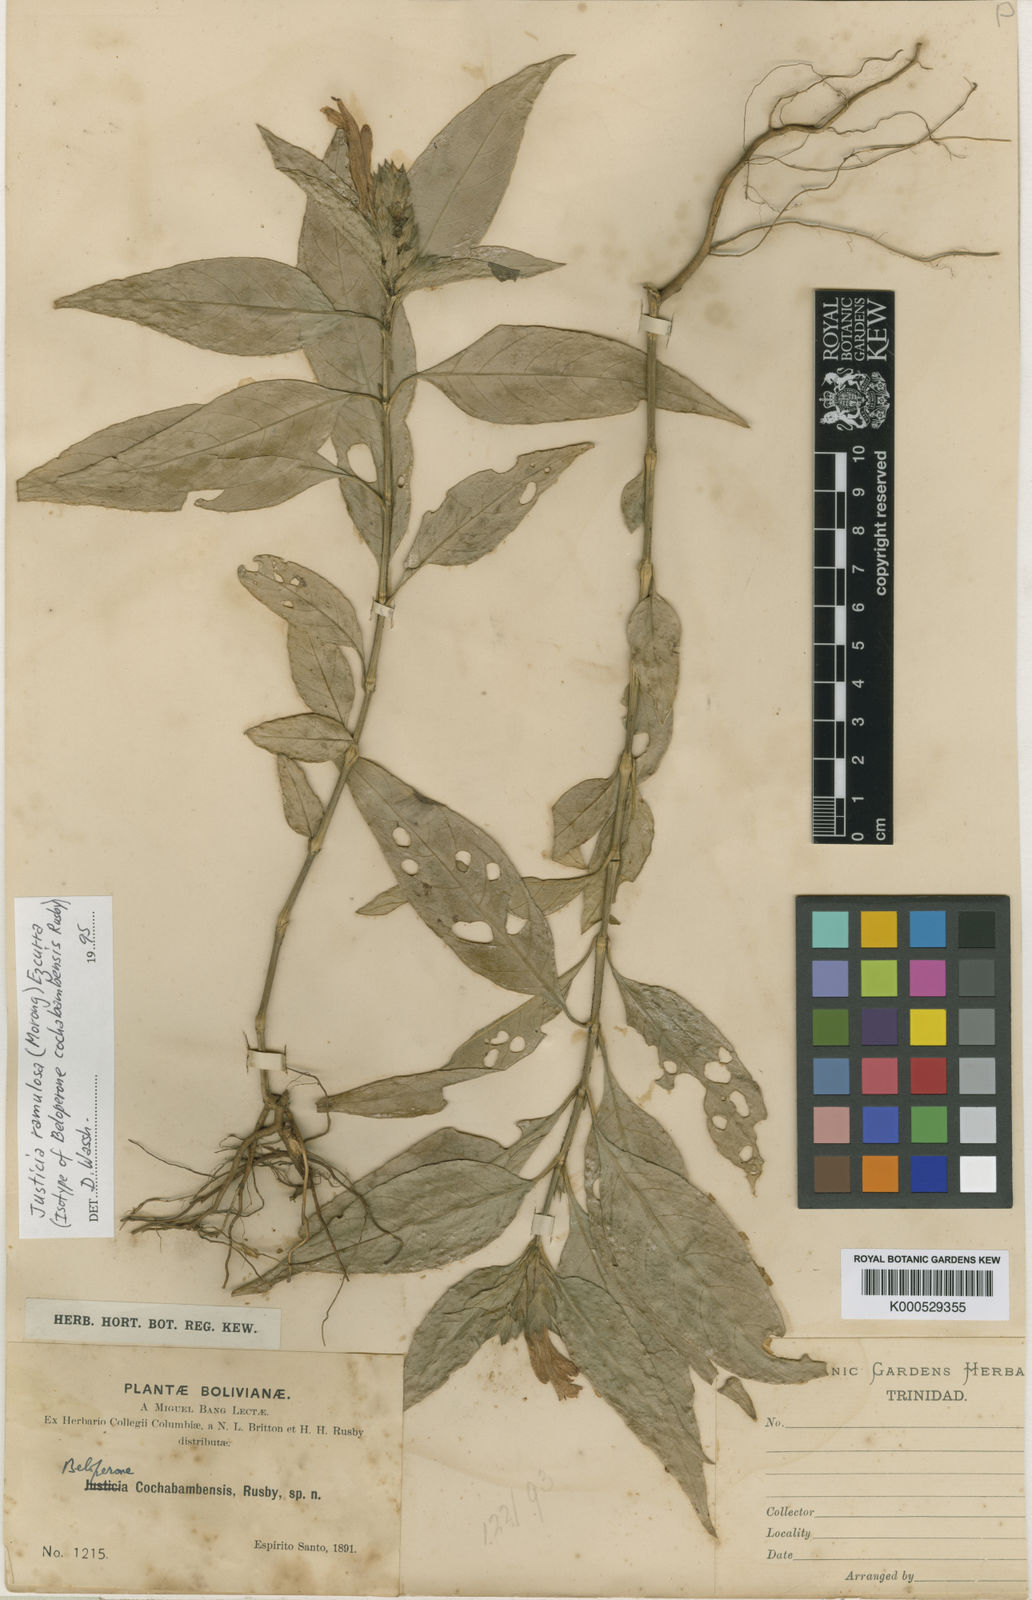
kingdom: Plantae
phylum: Tracheophyta
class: Magnoliopsida
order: Lamiales
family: Acanthaceae
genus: Justicia
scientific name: Justicia ramulosa
